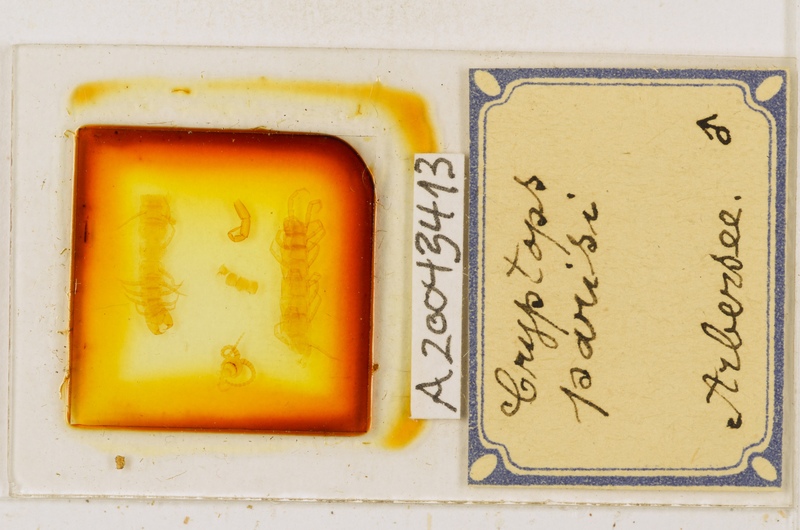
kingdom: Animalia
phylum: Arthropoda
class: Chilopoda
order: Scolopendromorpha
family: Cryptopidae
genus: Cryptops
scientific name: Cryptops parisi
